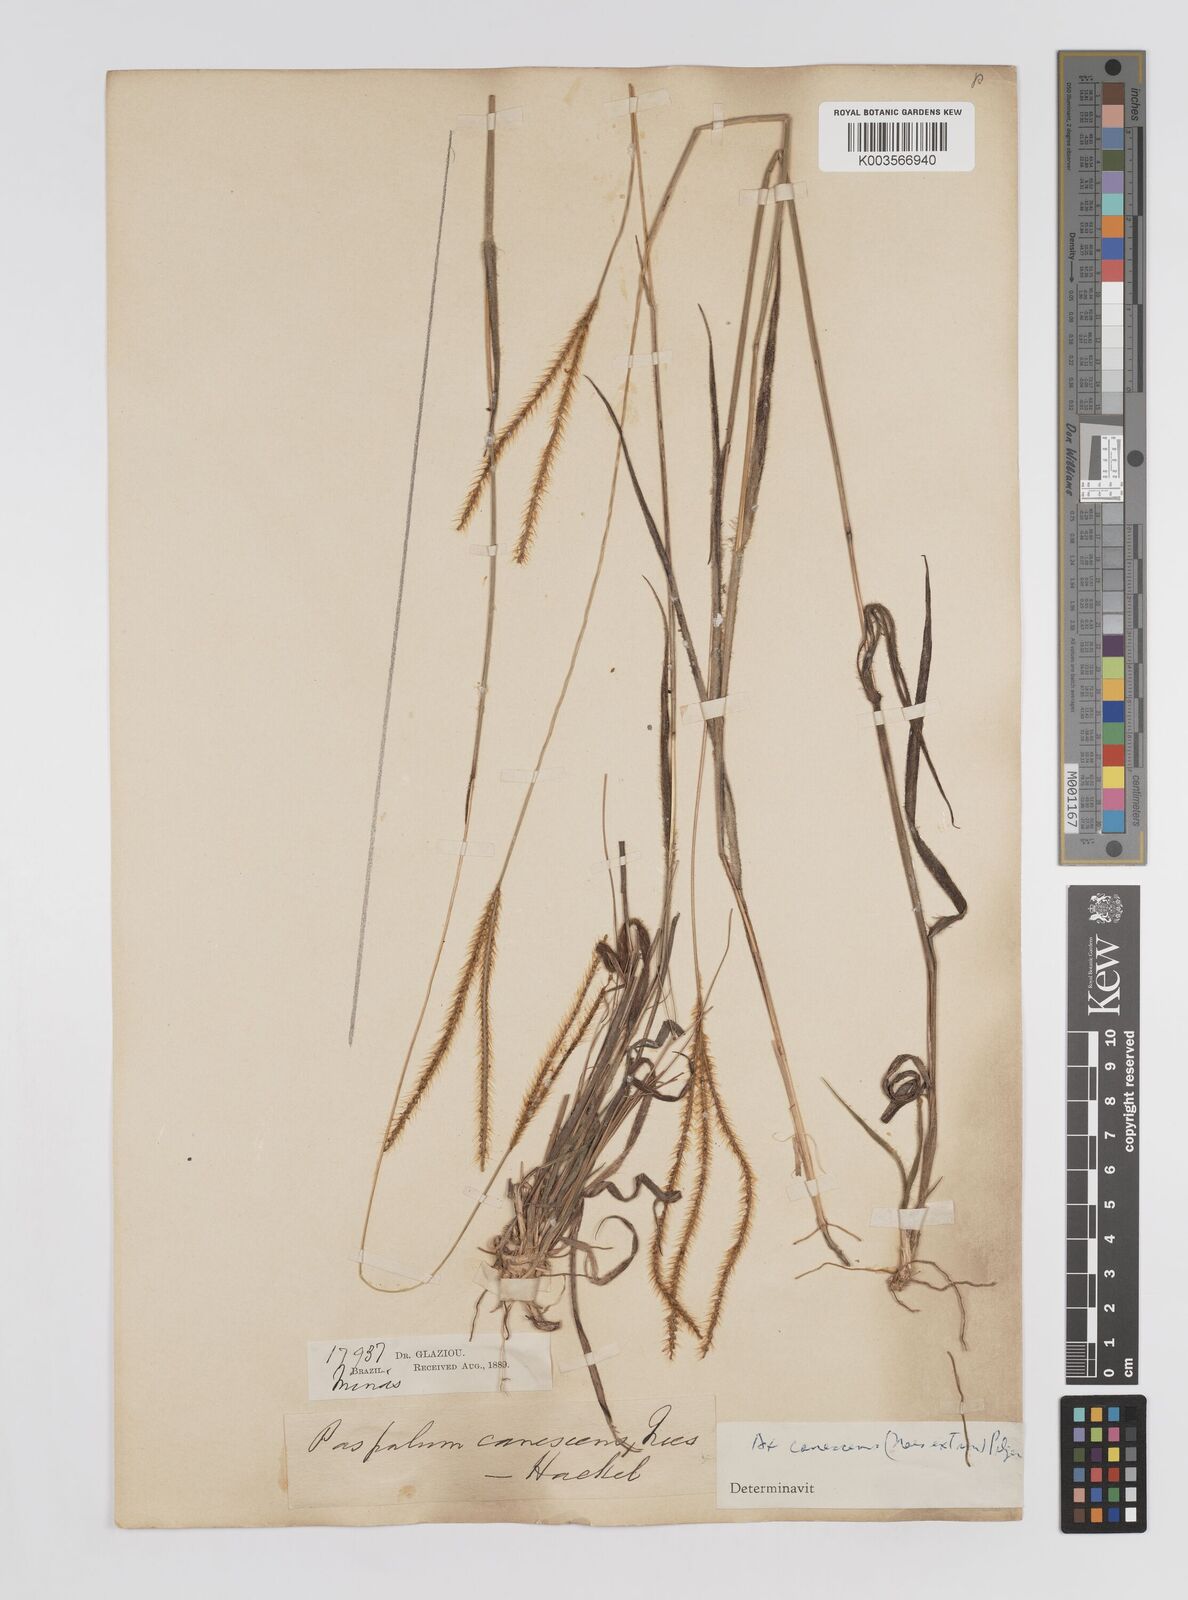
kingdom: Plantae
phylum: Tracheophyta
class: Liliopsida
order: Poales
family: Poaceae
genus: Axonopus
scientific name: Axonopus aureus
